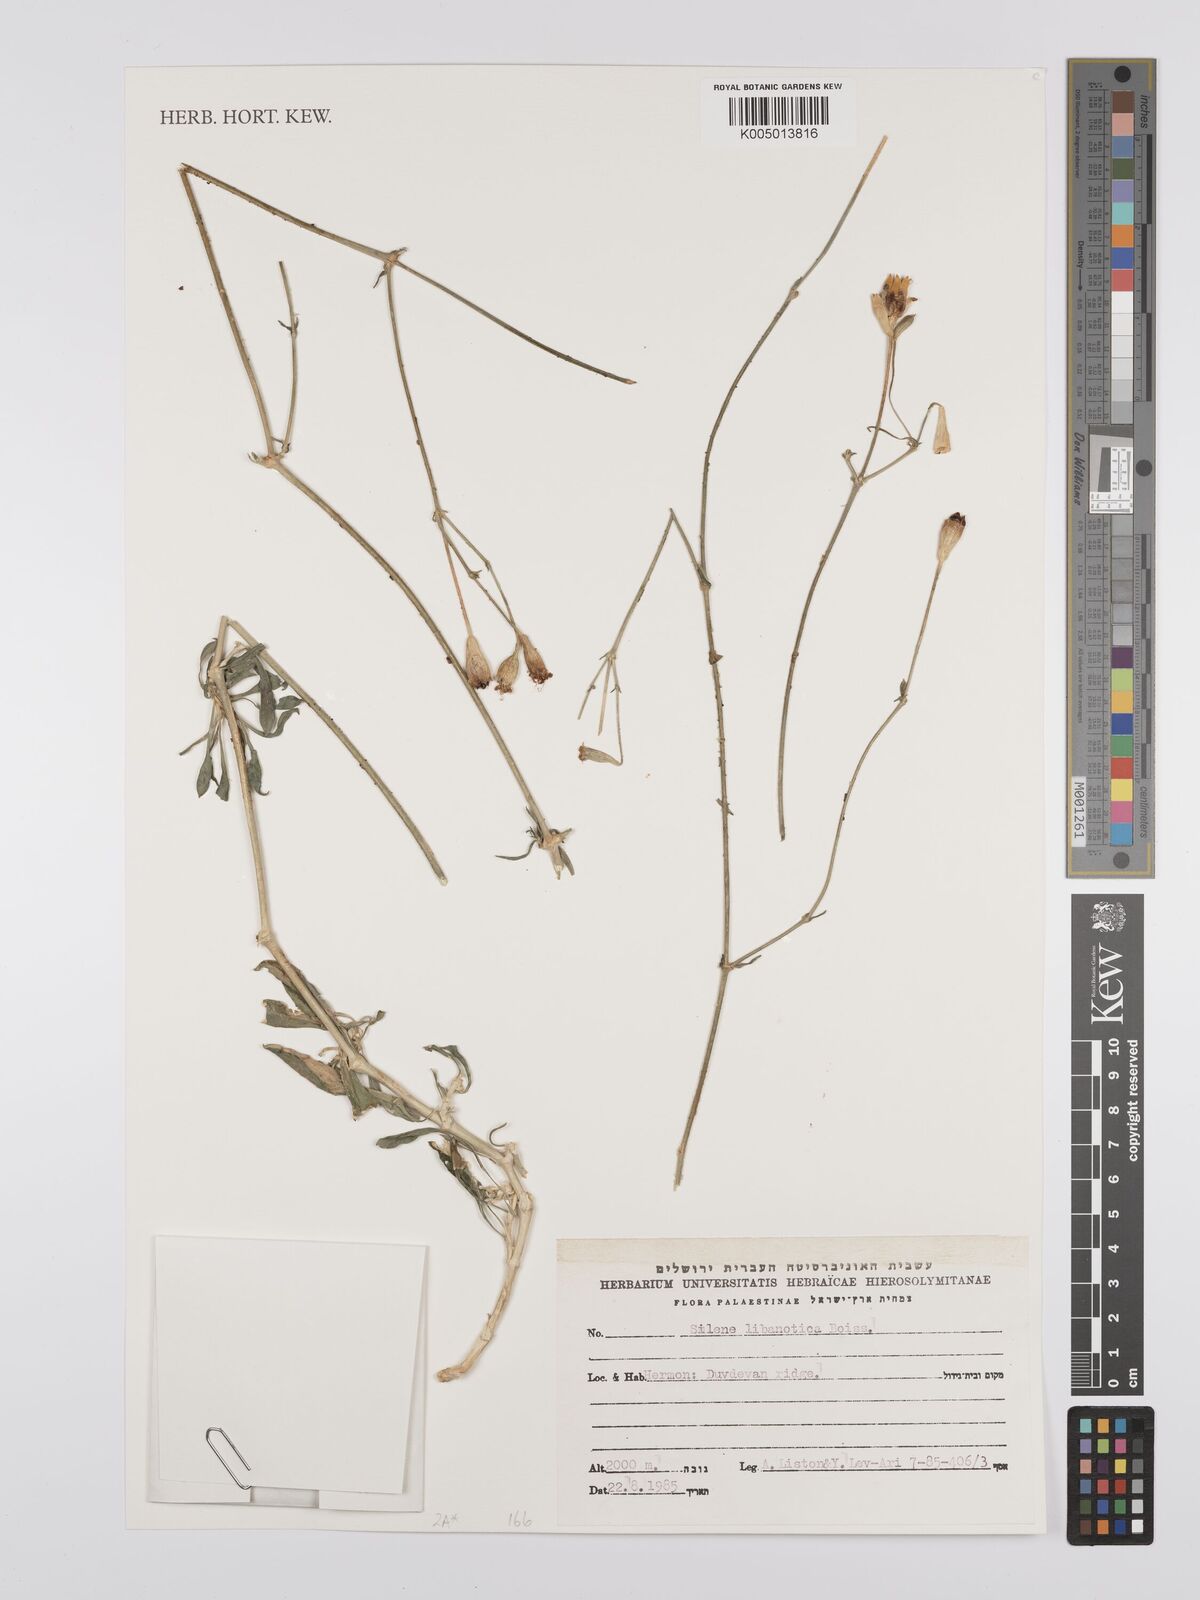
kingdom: Plantae
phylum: Tracheophyta
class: Magnoliopsida
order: Caryophyllales
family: Caryophyllaceae
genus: Silene
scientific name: Silene libanotica
